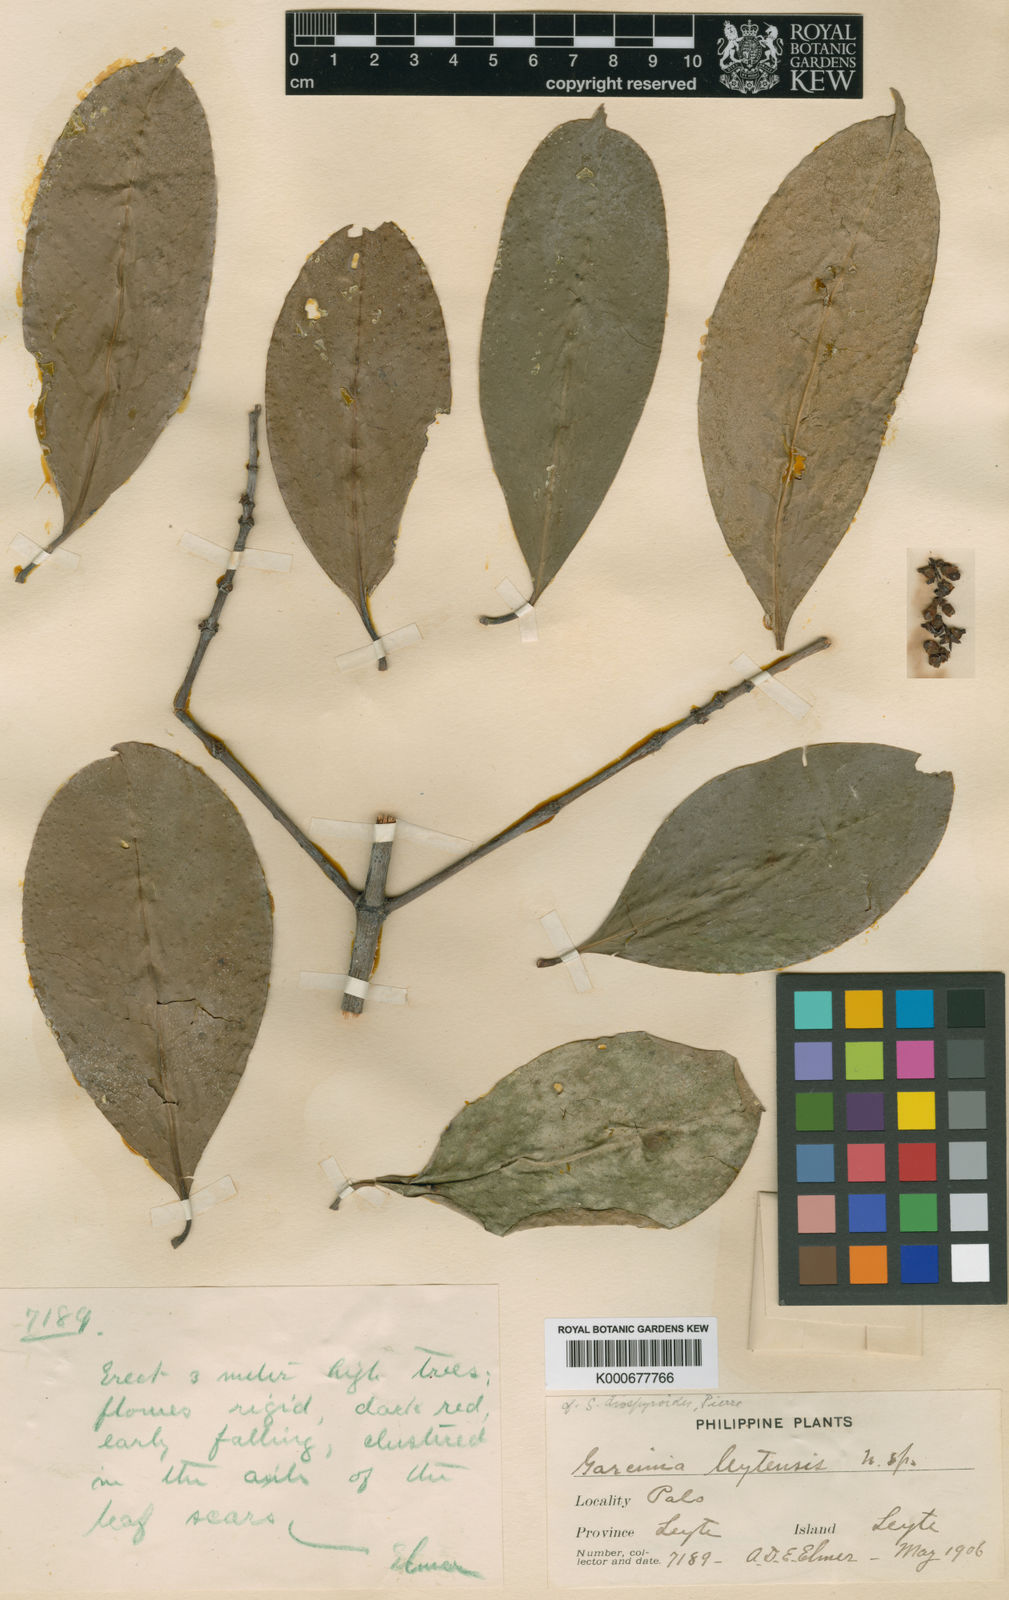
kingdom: Plantae
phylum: Tracheophyta
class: Magnoliopsida
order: Malpighiales
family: Clusiaceae
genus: Garcinia
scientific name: Garcinia
